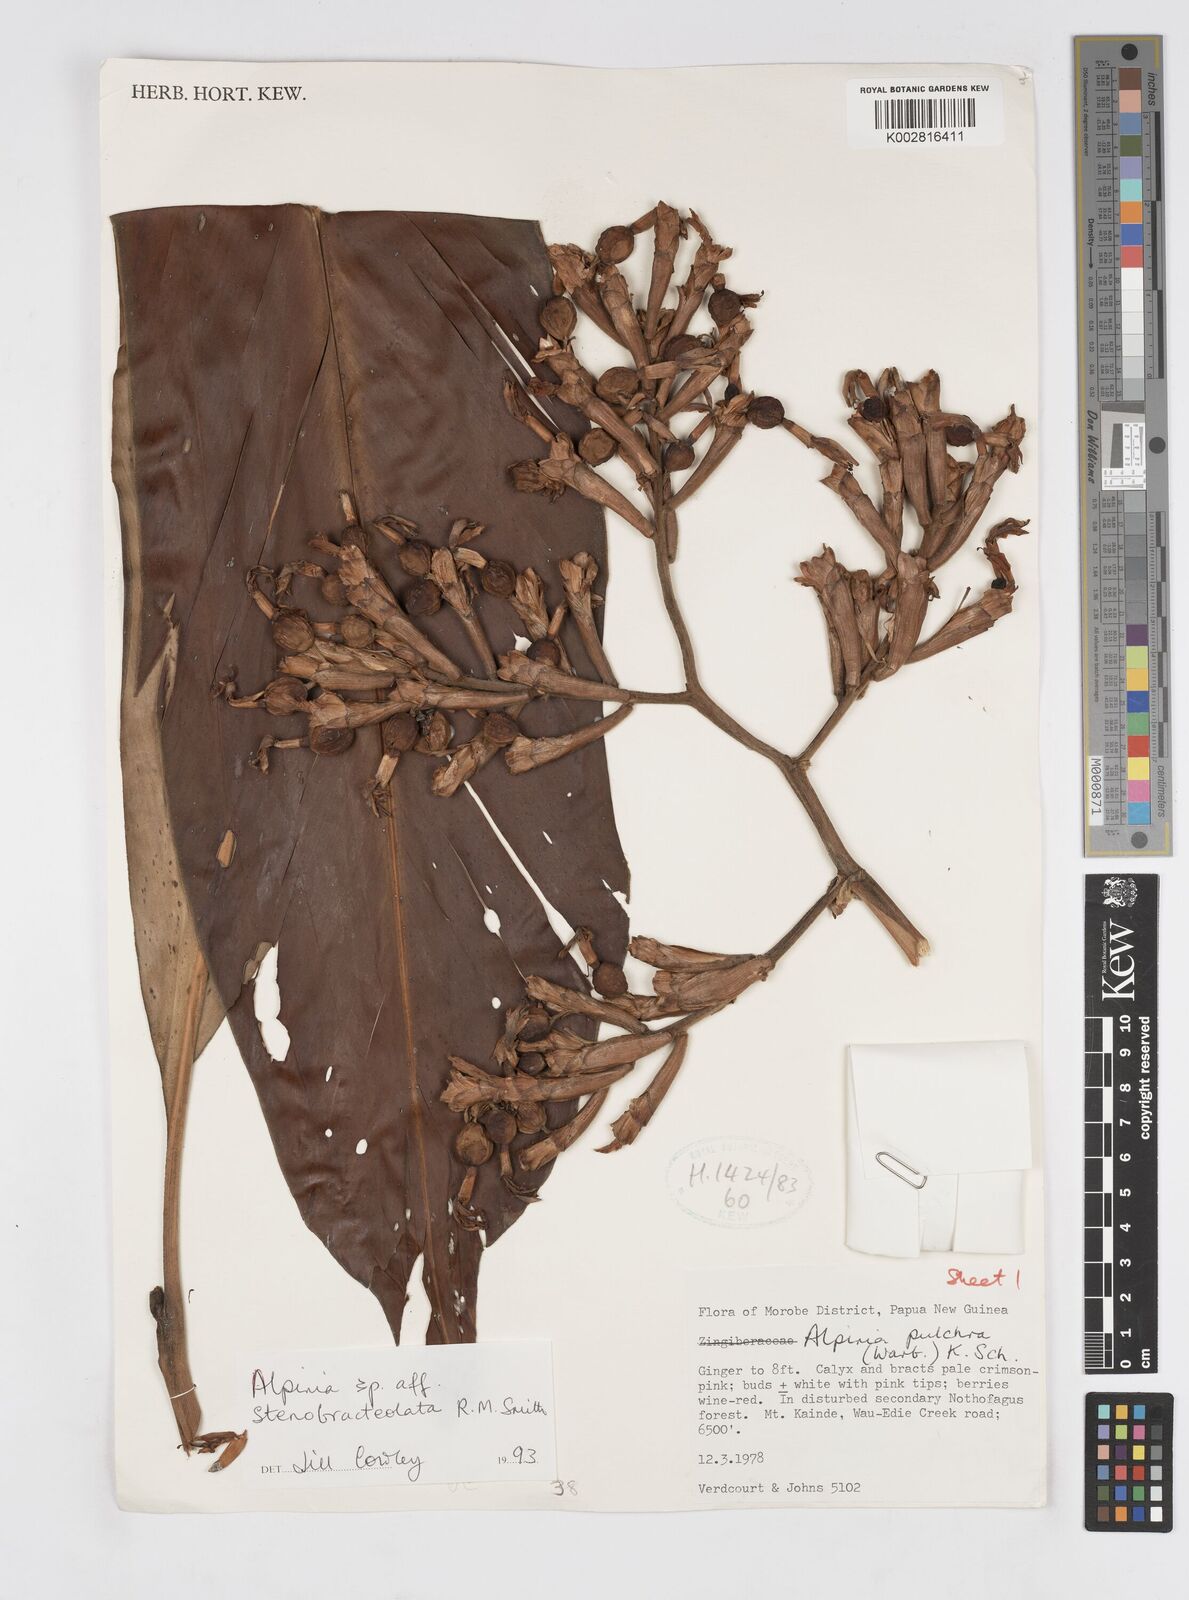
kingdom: Plantae
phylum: Tracheophyta
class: Liliopsida
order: Zingiberales
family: Zingiberaceae
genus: Alpinia
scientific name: Alpinia stenobracteolata
